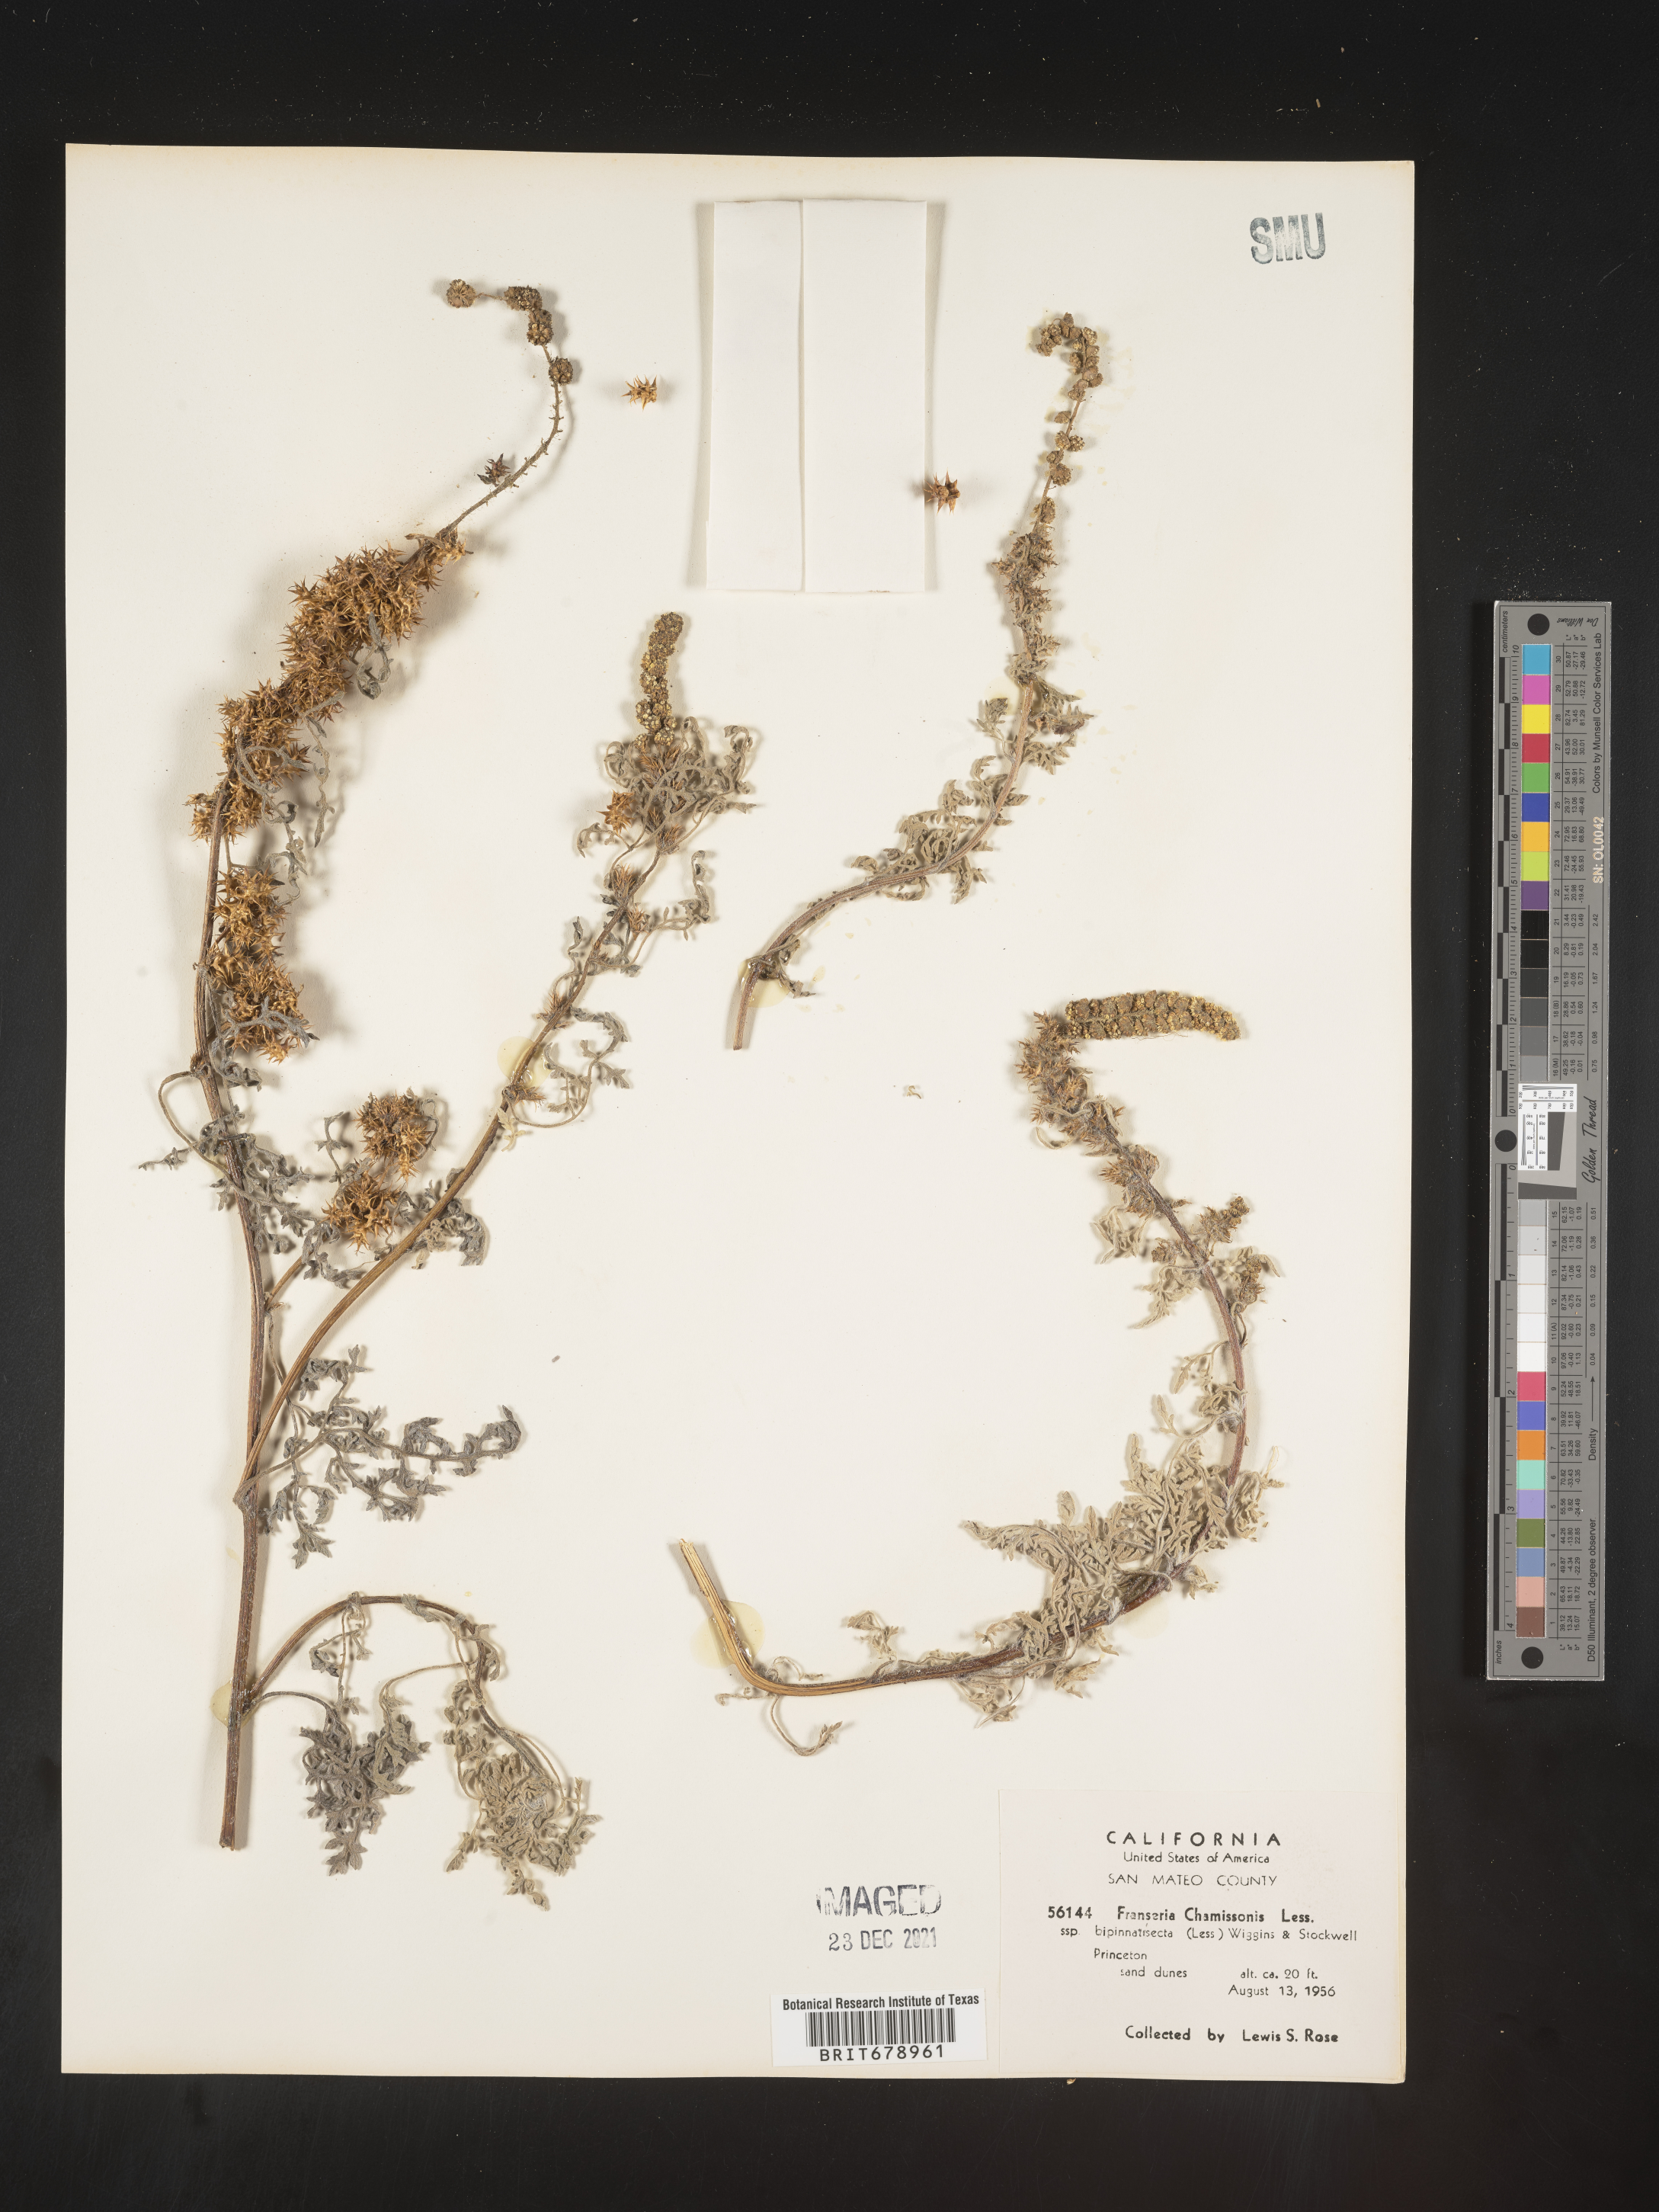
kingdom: Plantae
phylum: Tracheophyta
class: Magnoliopsida
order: Asterales
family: Asteraceae
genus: Ambrosia
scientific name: Ambrosia chamissonis
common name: Beachbur
